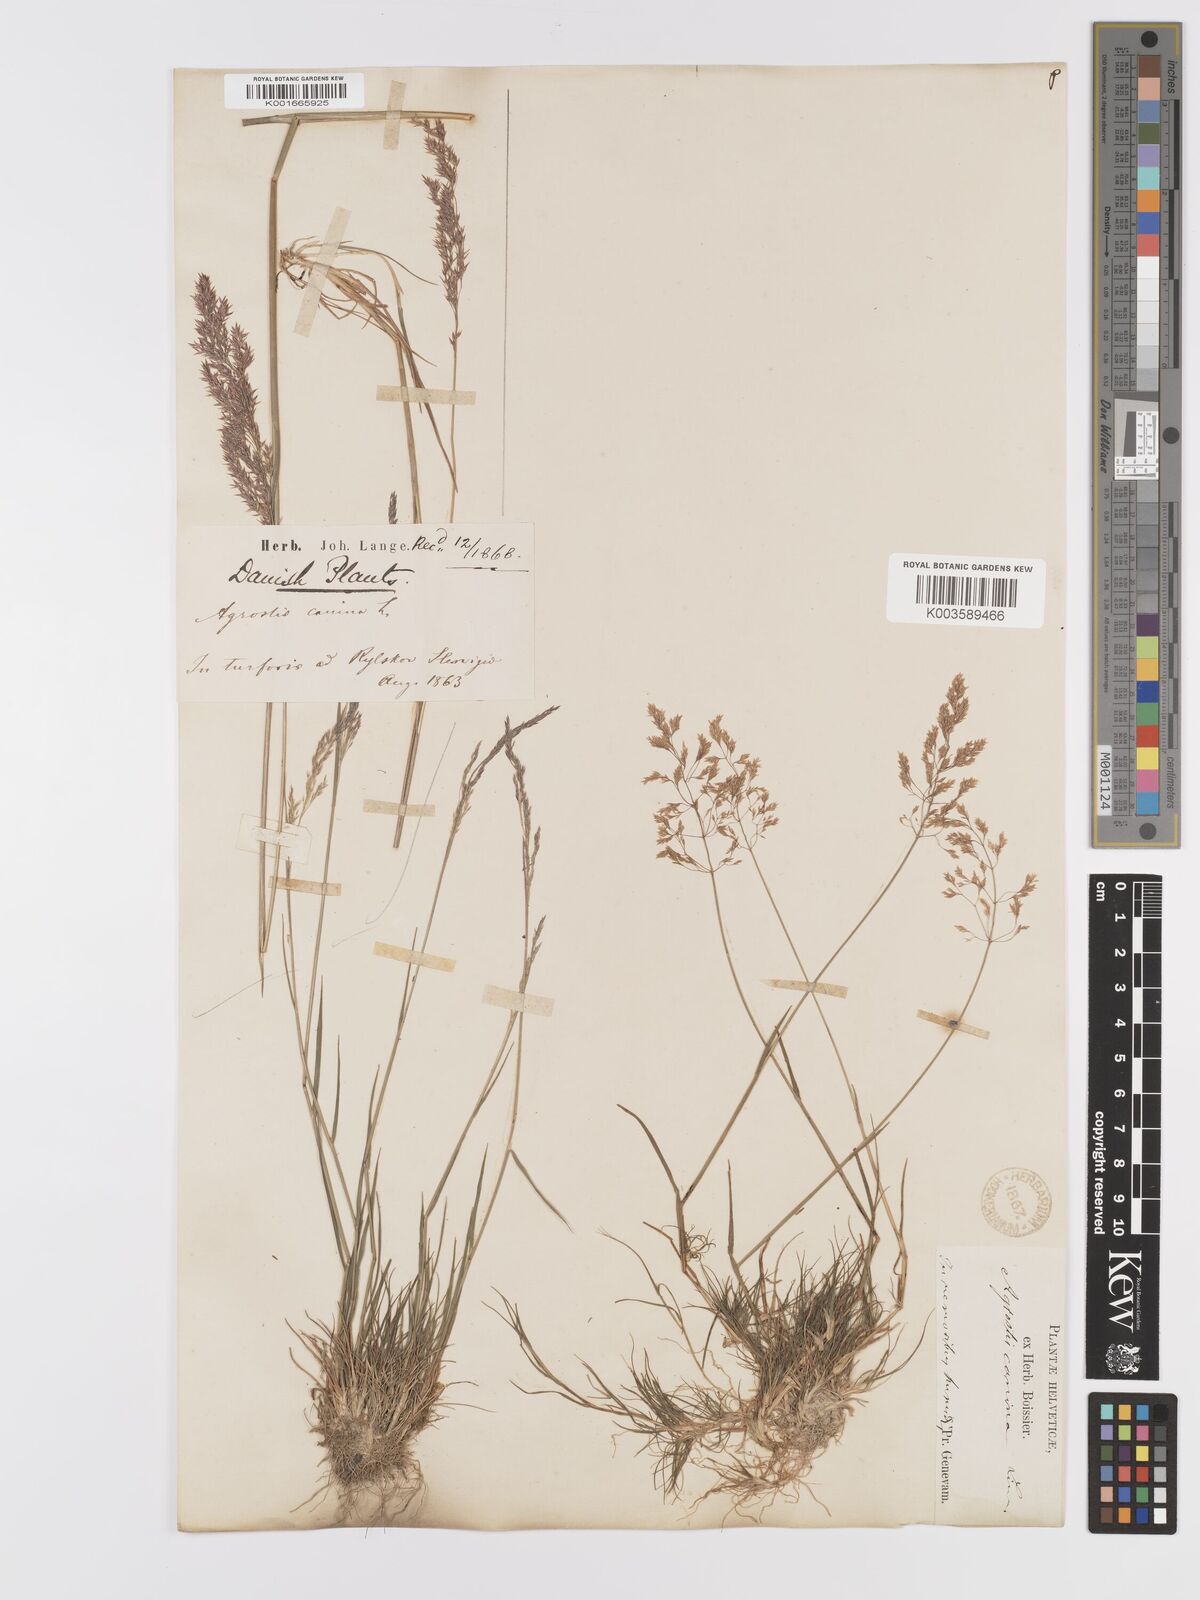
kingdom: Plantae
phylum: Tracheophyta
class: Liliopsida
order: Poales
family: Poaceae
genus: Agrostis
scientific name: Agrostis canina
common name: Velvet bent
